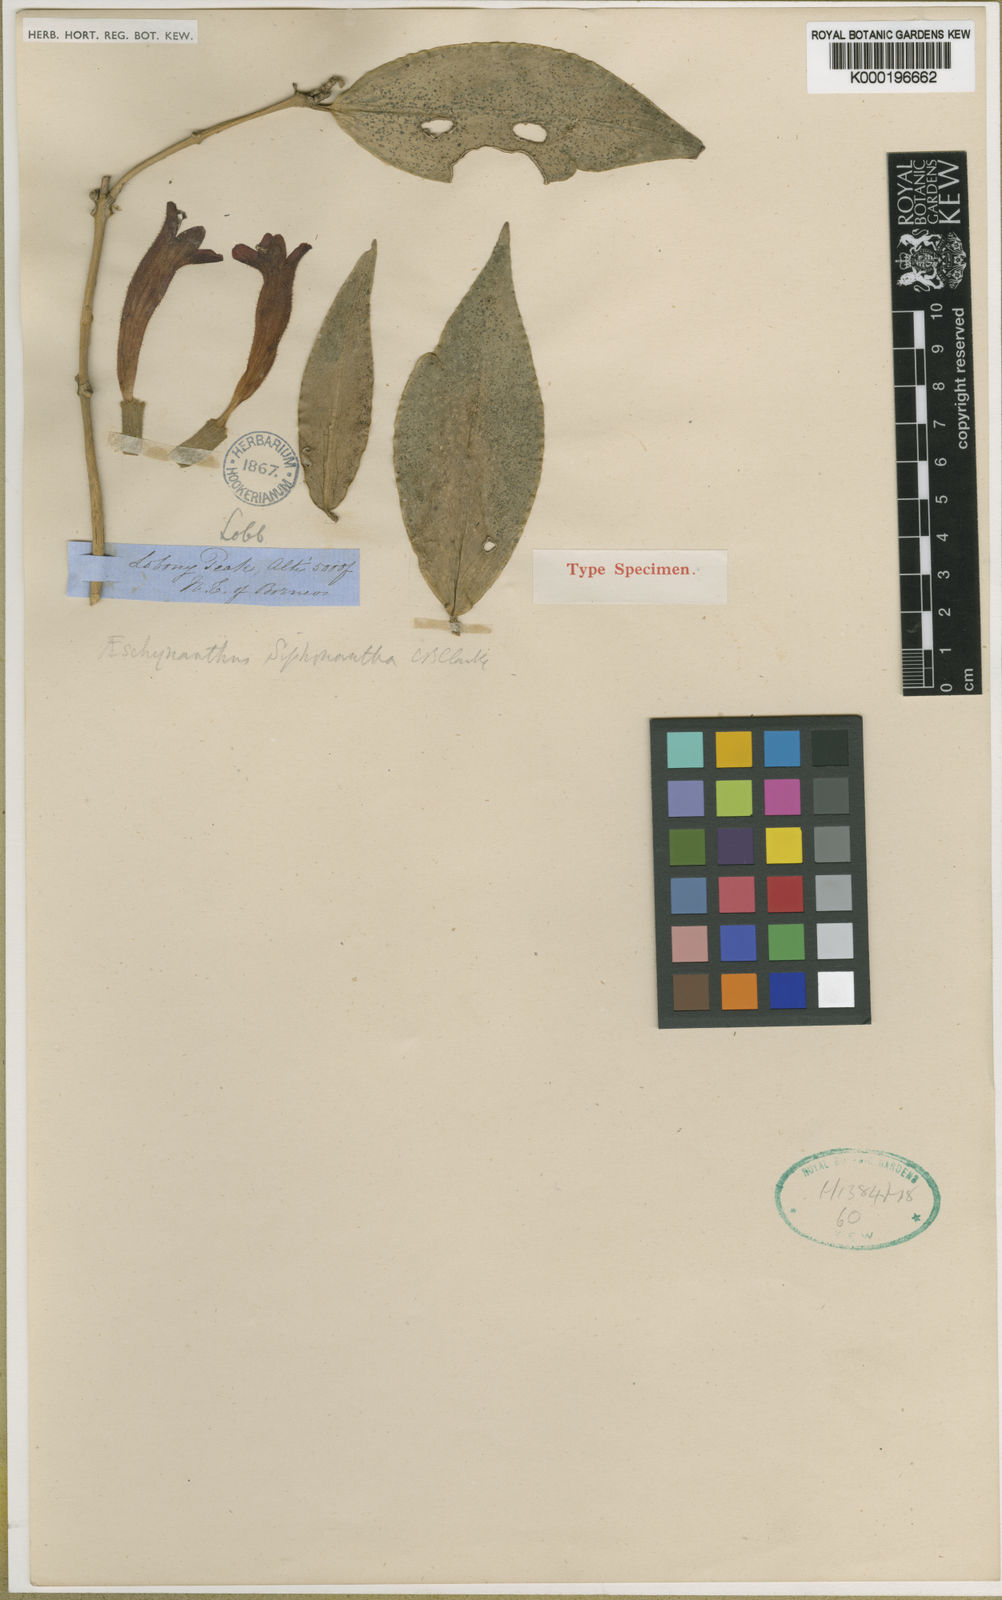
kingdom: Plantae
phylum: Tracheophyta
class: Magnoliopsida
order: Lamiales
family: Gesneriaceae
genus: Aeschynanthus
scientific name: Aeschynanthus siphonanthus
